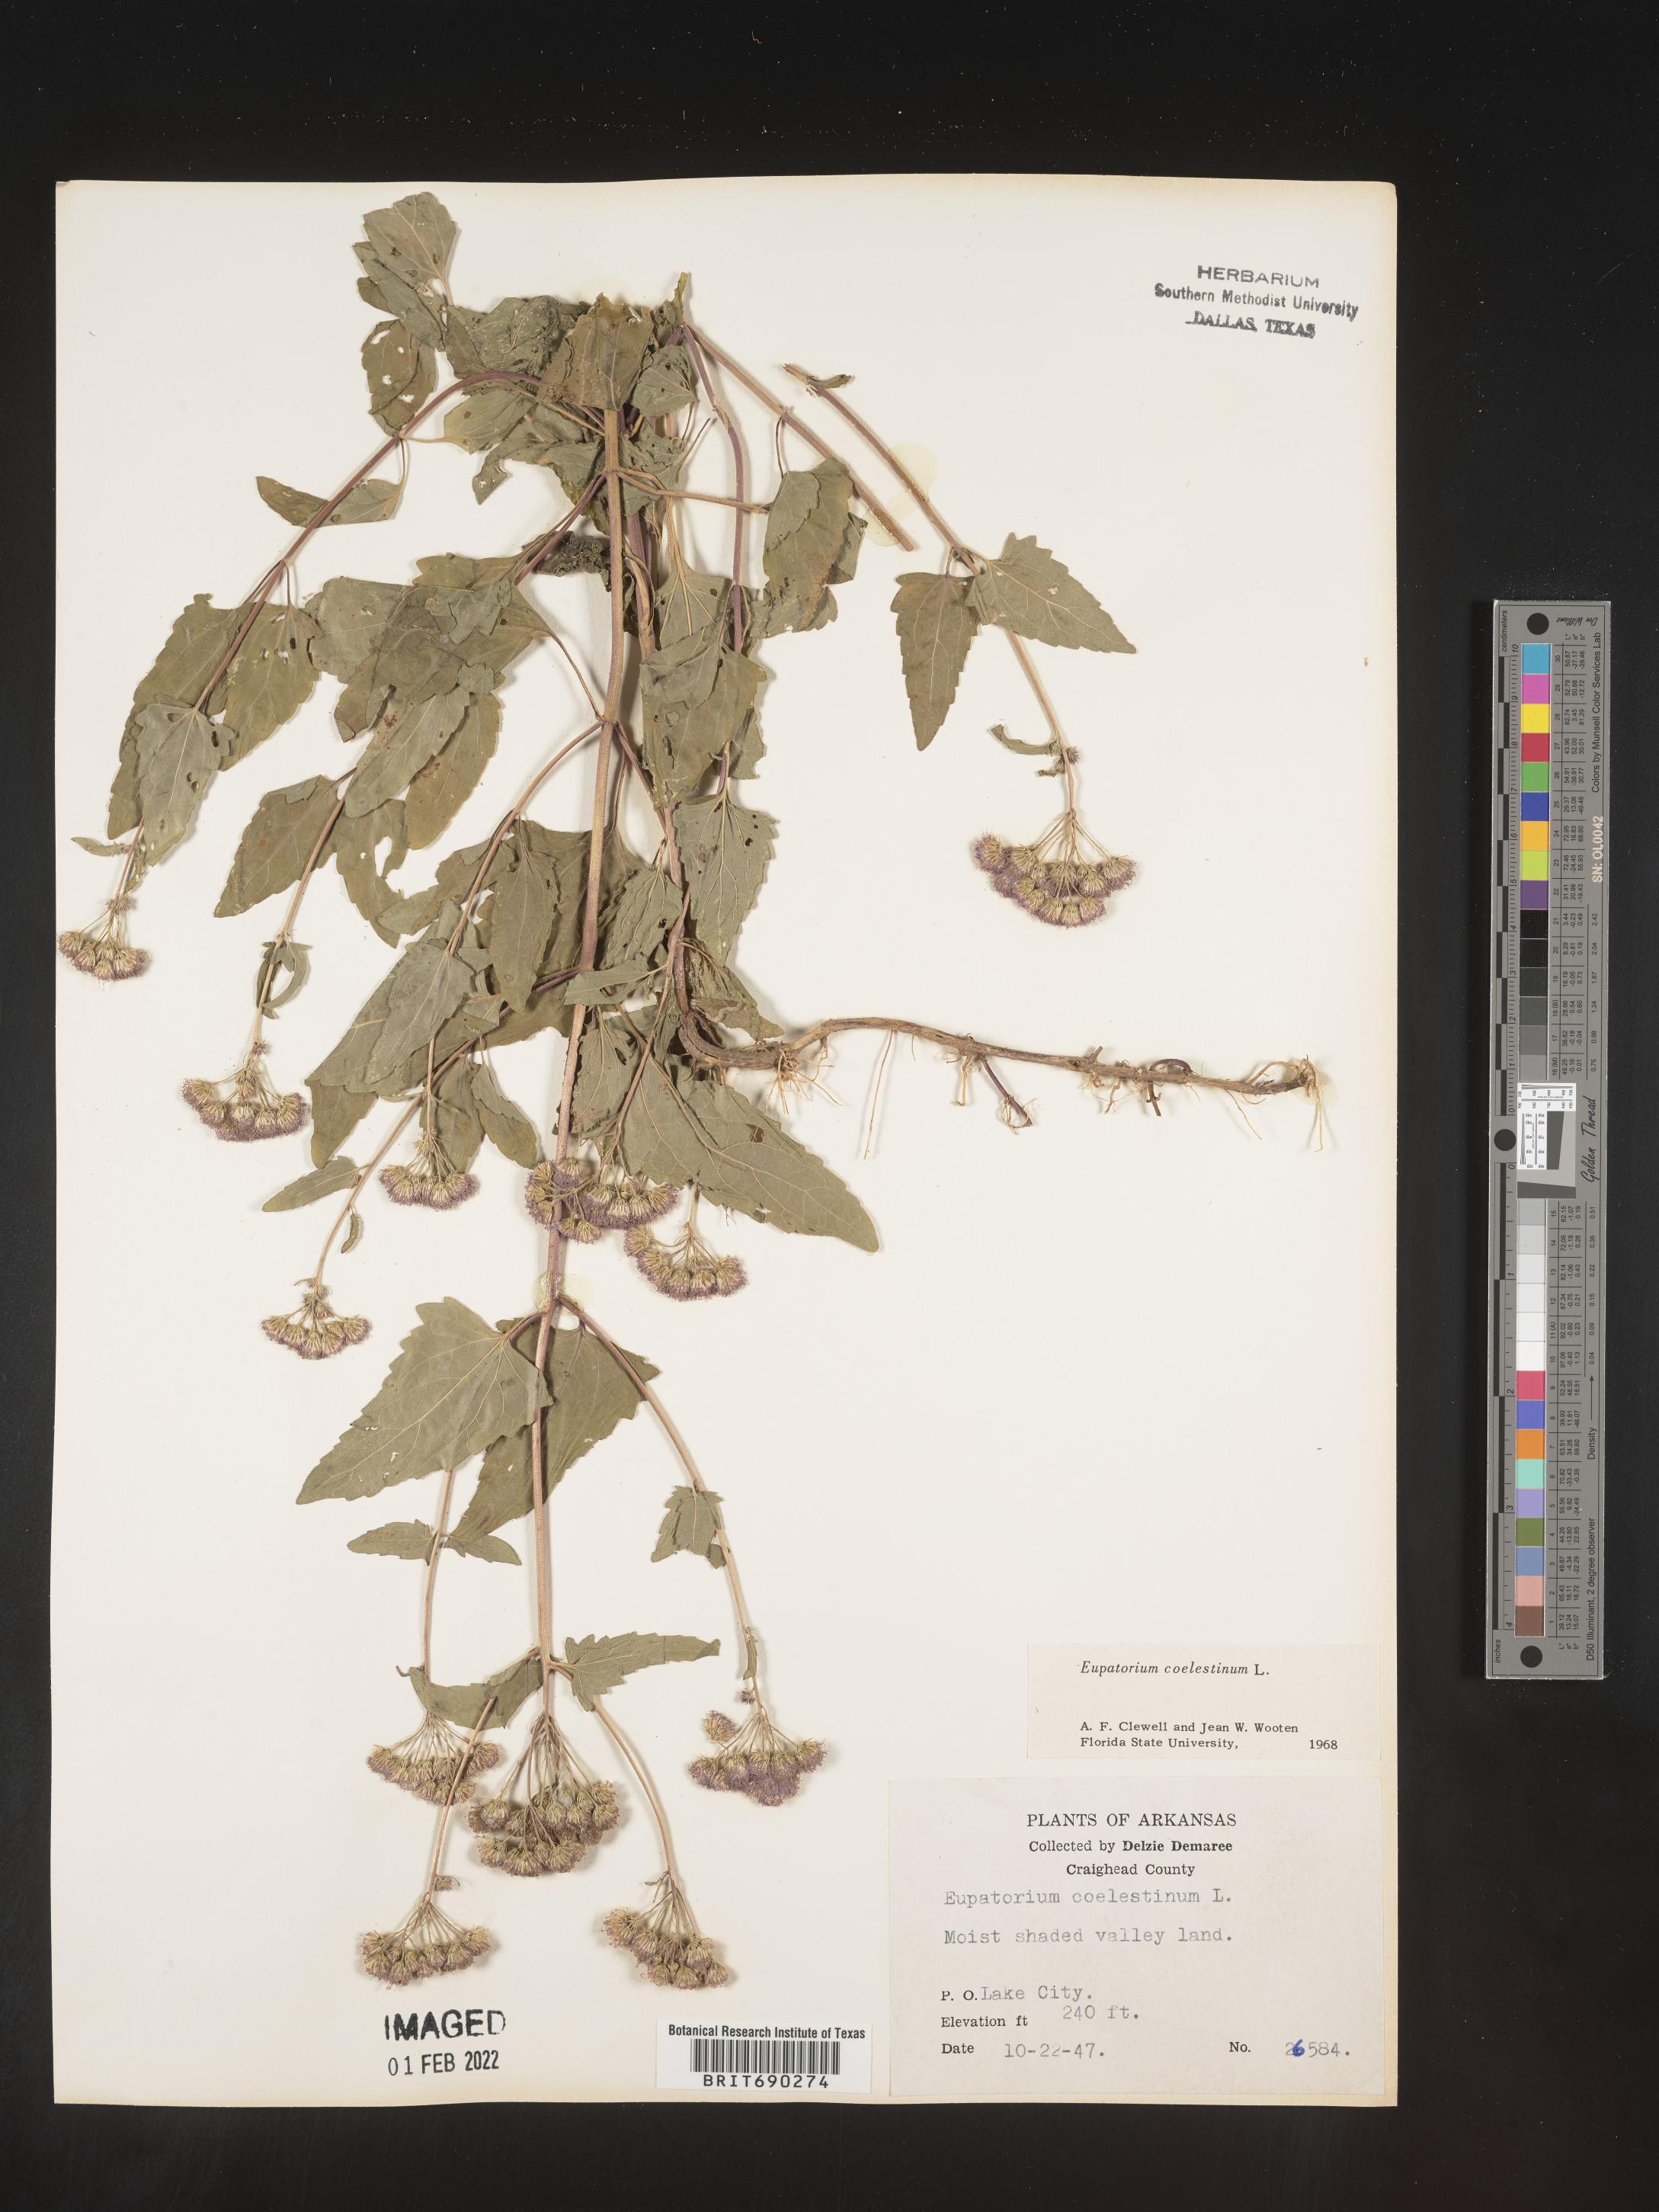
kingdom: Plantae
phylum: Tracheophyta
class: Magnoliopsida
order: Asterales
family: Asteraceae
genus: Conoclinium
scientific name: Conoclinium coelestinum
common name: Blue mistflower
